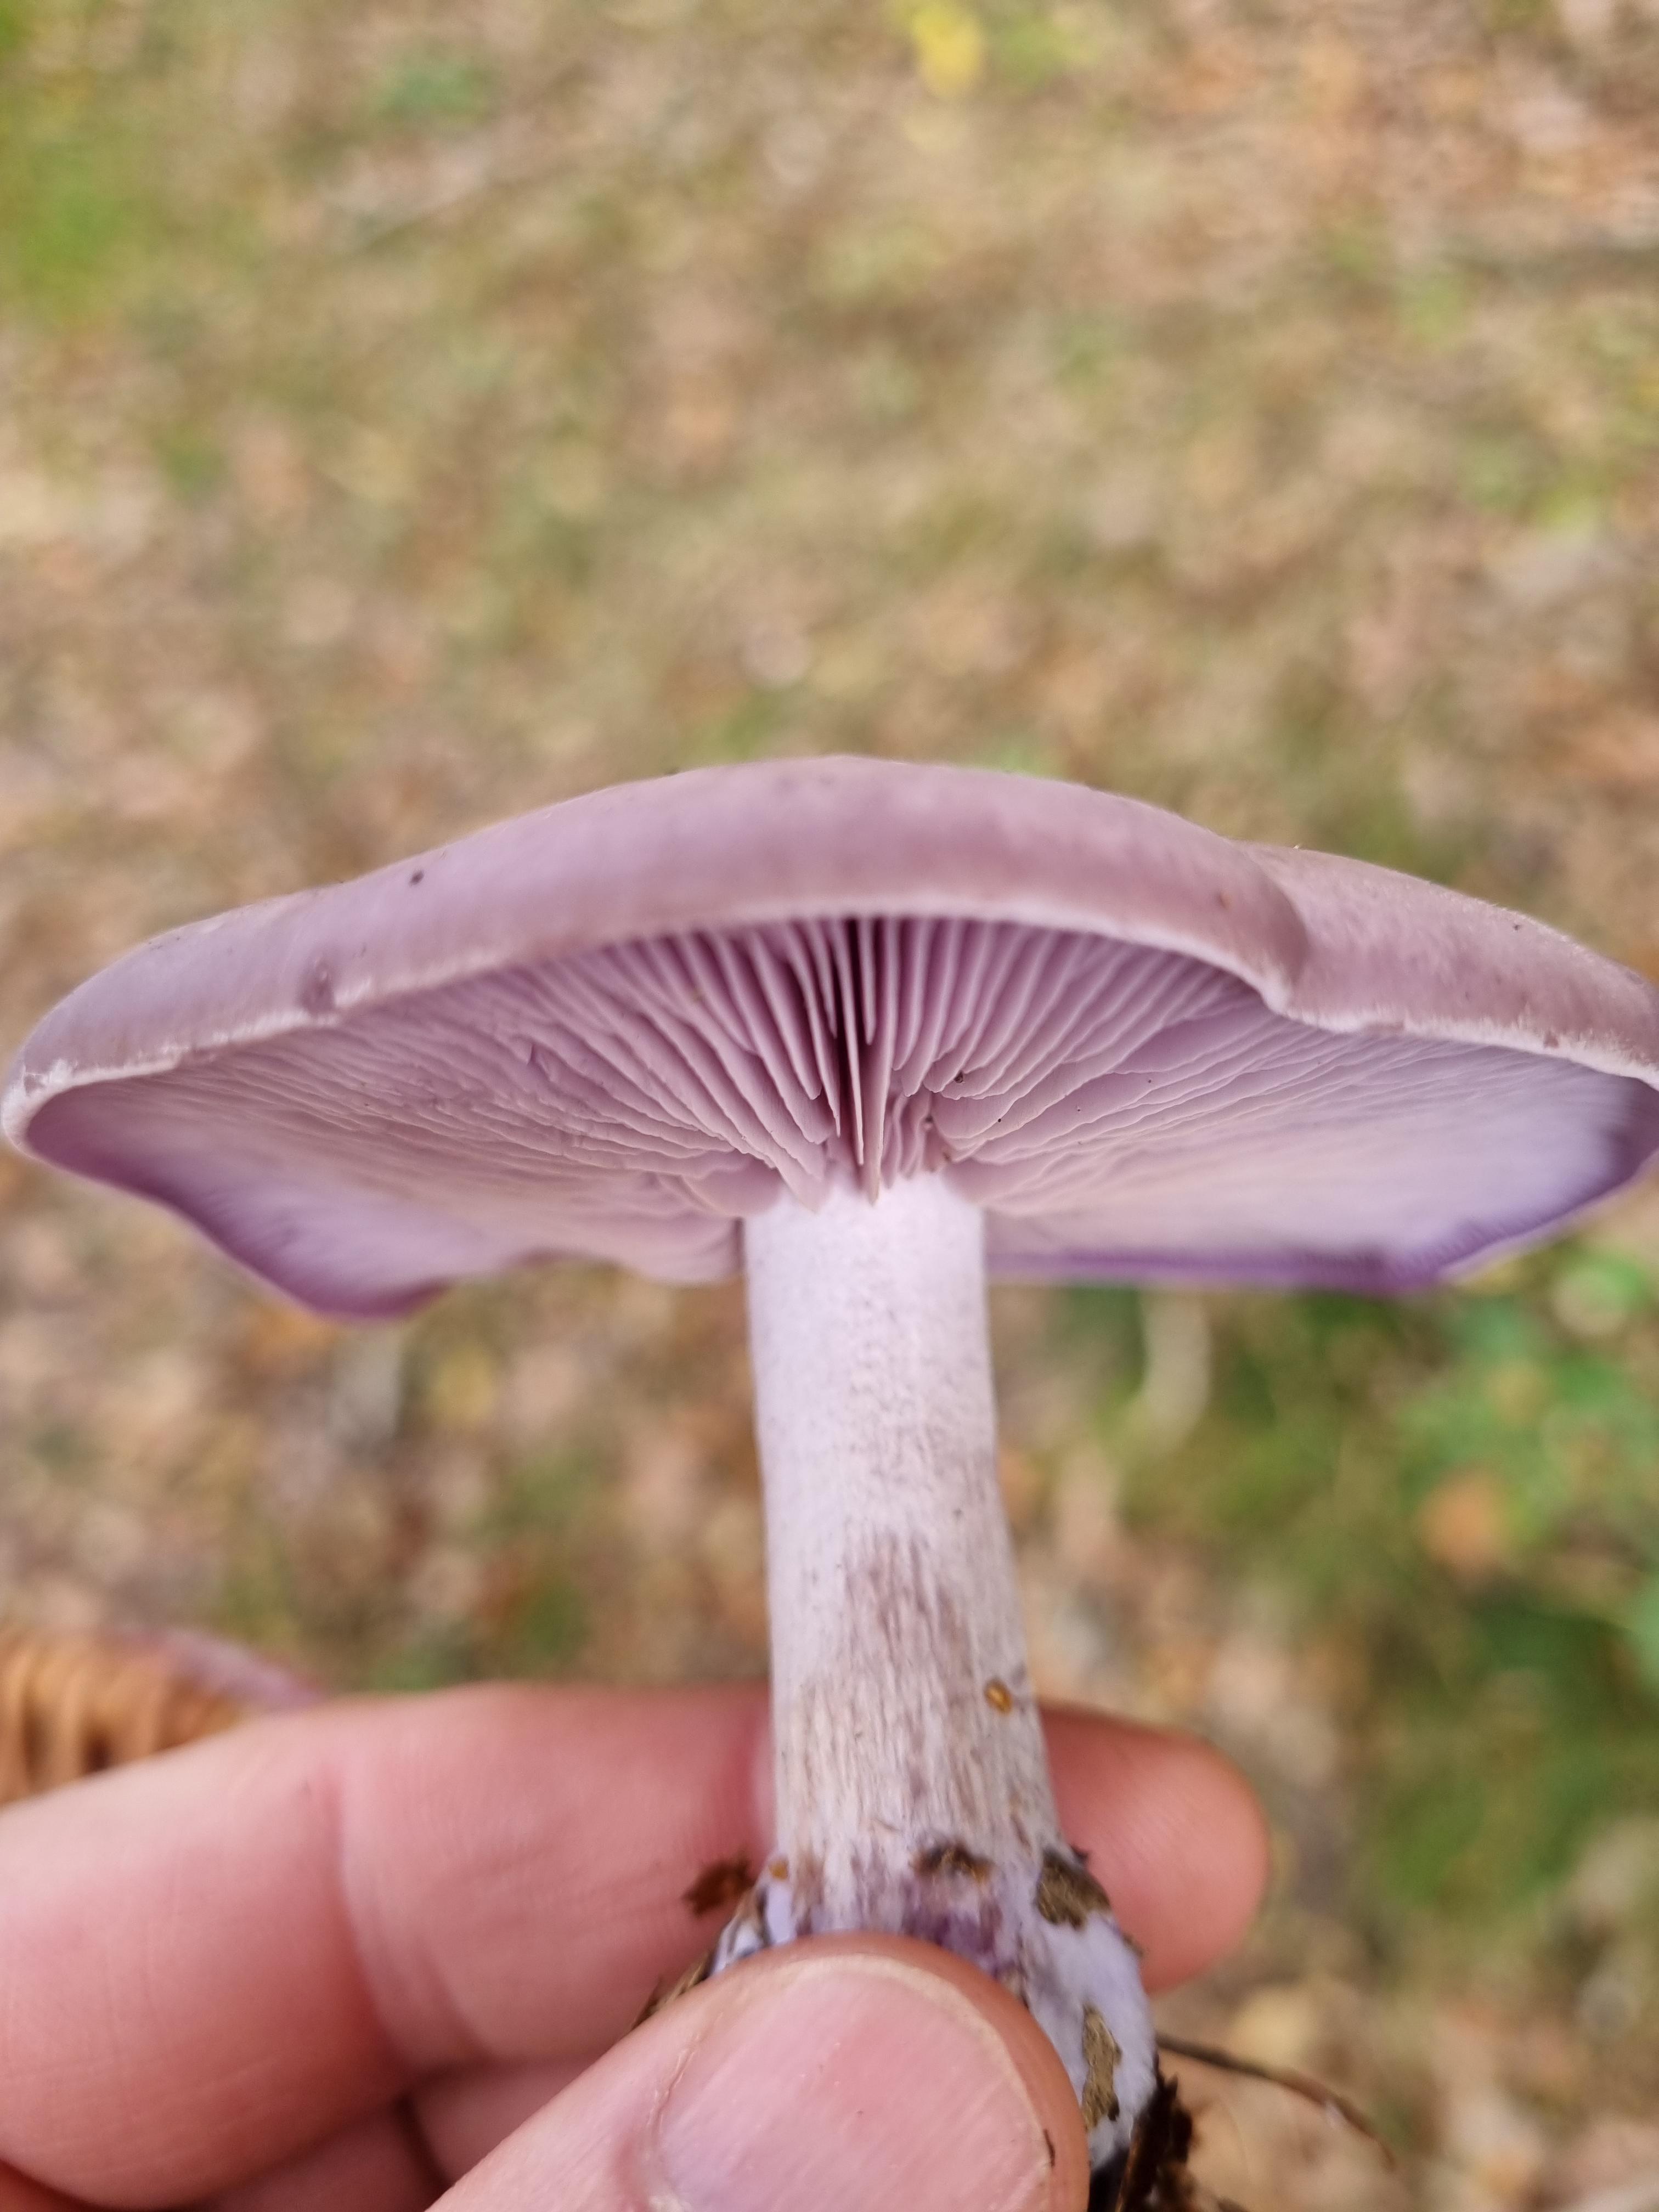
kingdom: Fungi
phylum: Basidiomycota
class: Agaricomycetes
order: Agaricales
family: Tricholomataceae
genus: Lepista
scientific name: Lepista nuda
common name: violet hekseringshat
